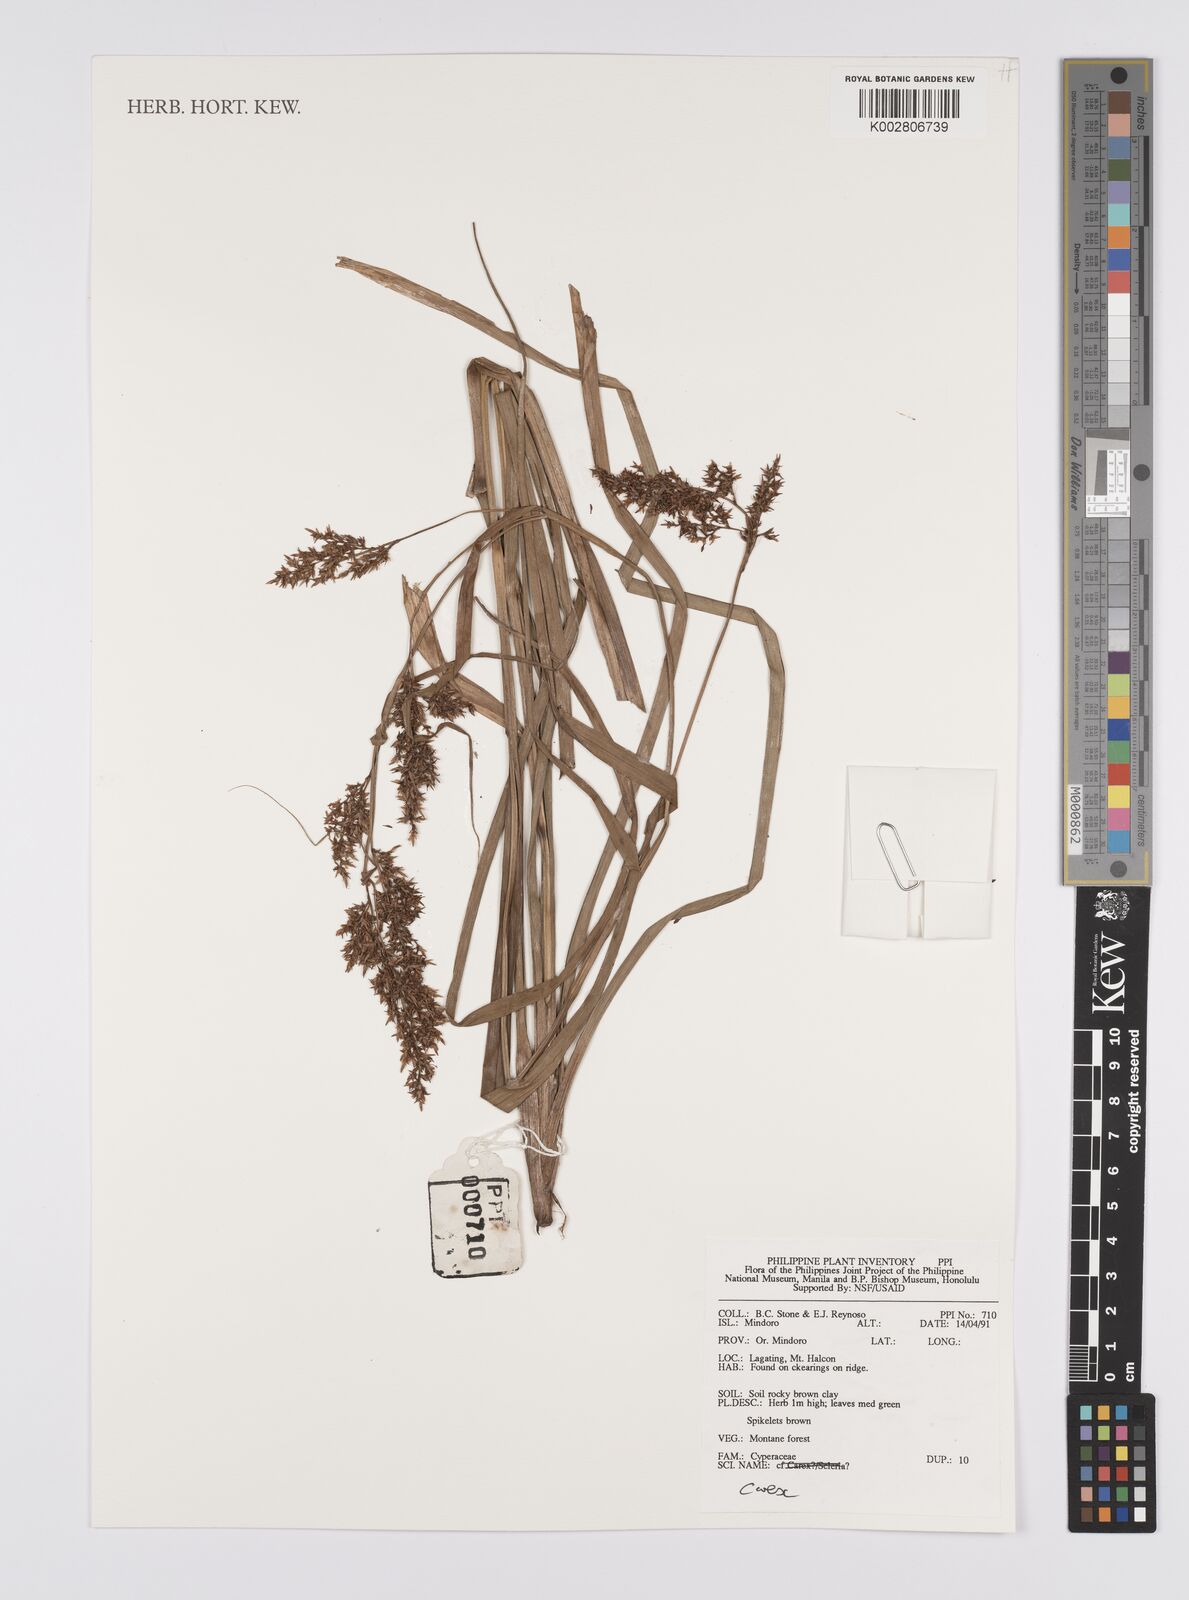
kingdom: Plantae
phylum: Tracheophyta
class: Liliopsida
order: Poales
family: Cyperaceae
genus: Carex
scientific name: Carex
